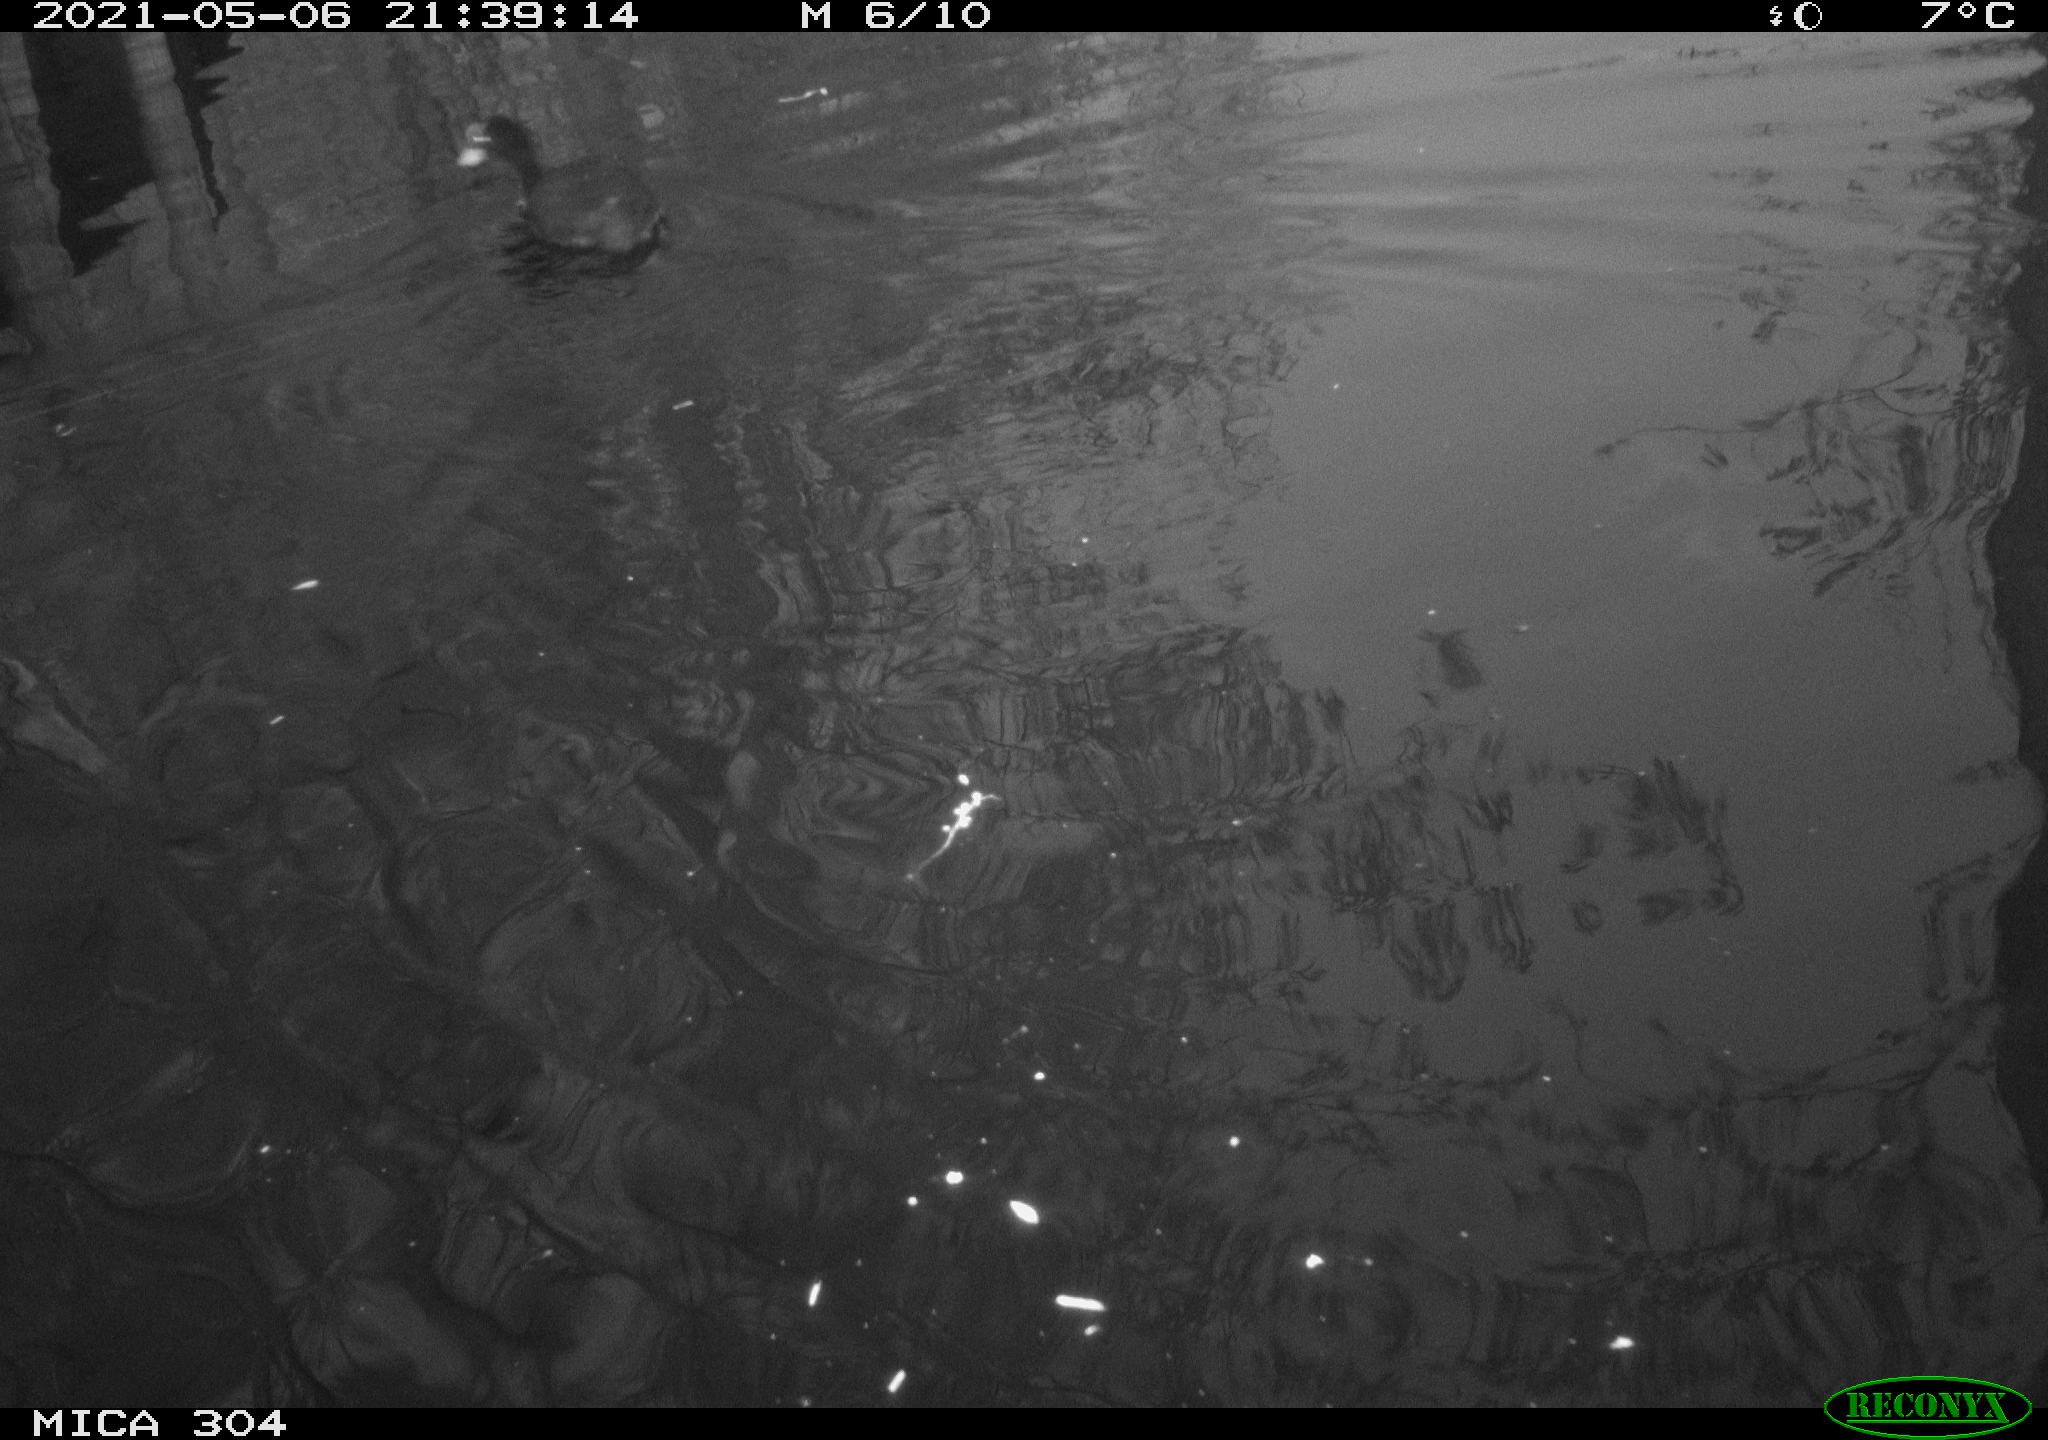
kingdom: Animalia
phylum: Chordata
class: Aves
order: Gruiformes
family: Rallidae
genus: Fulica
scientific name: Fulica atra
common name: Eurasian coot
